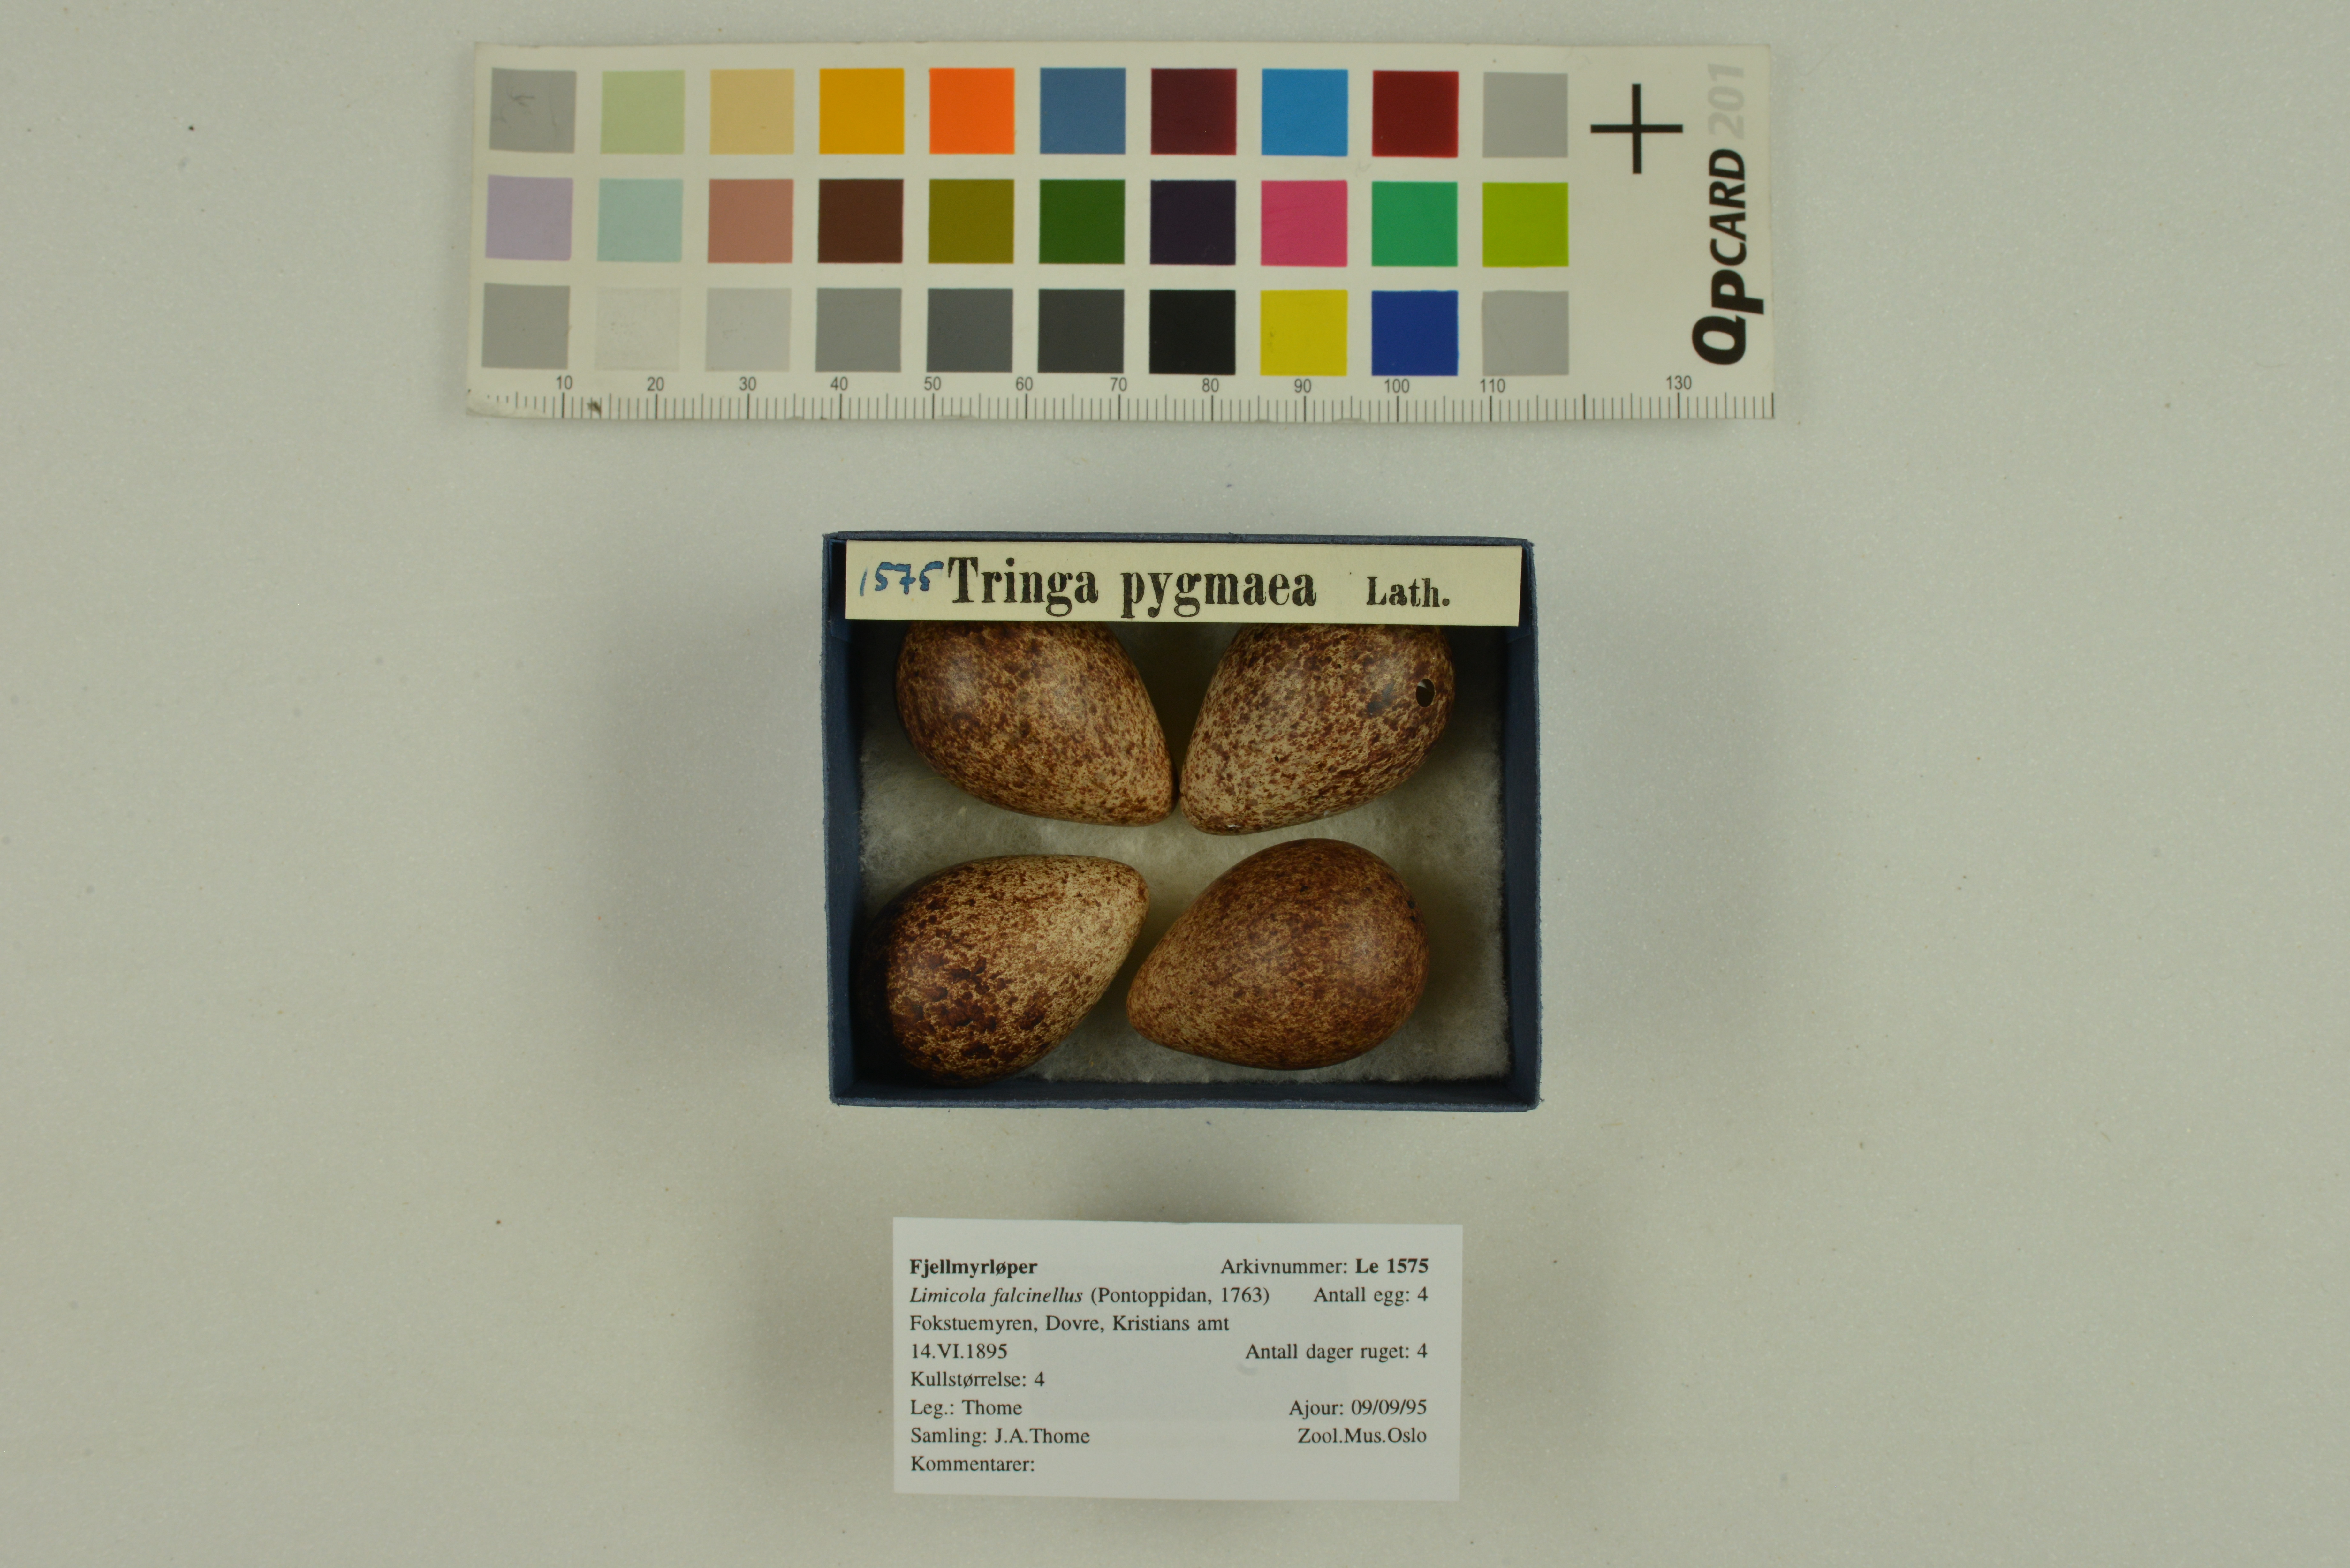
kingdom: Animalia
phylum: Chordata
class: Aves
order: Charadriiformes
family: Scolopacidae
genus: Calidris
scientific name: Calidris falcinellus
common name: Broad-billed sandpiper
